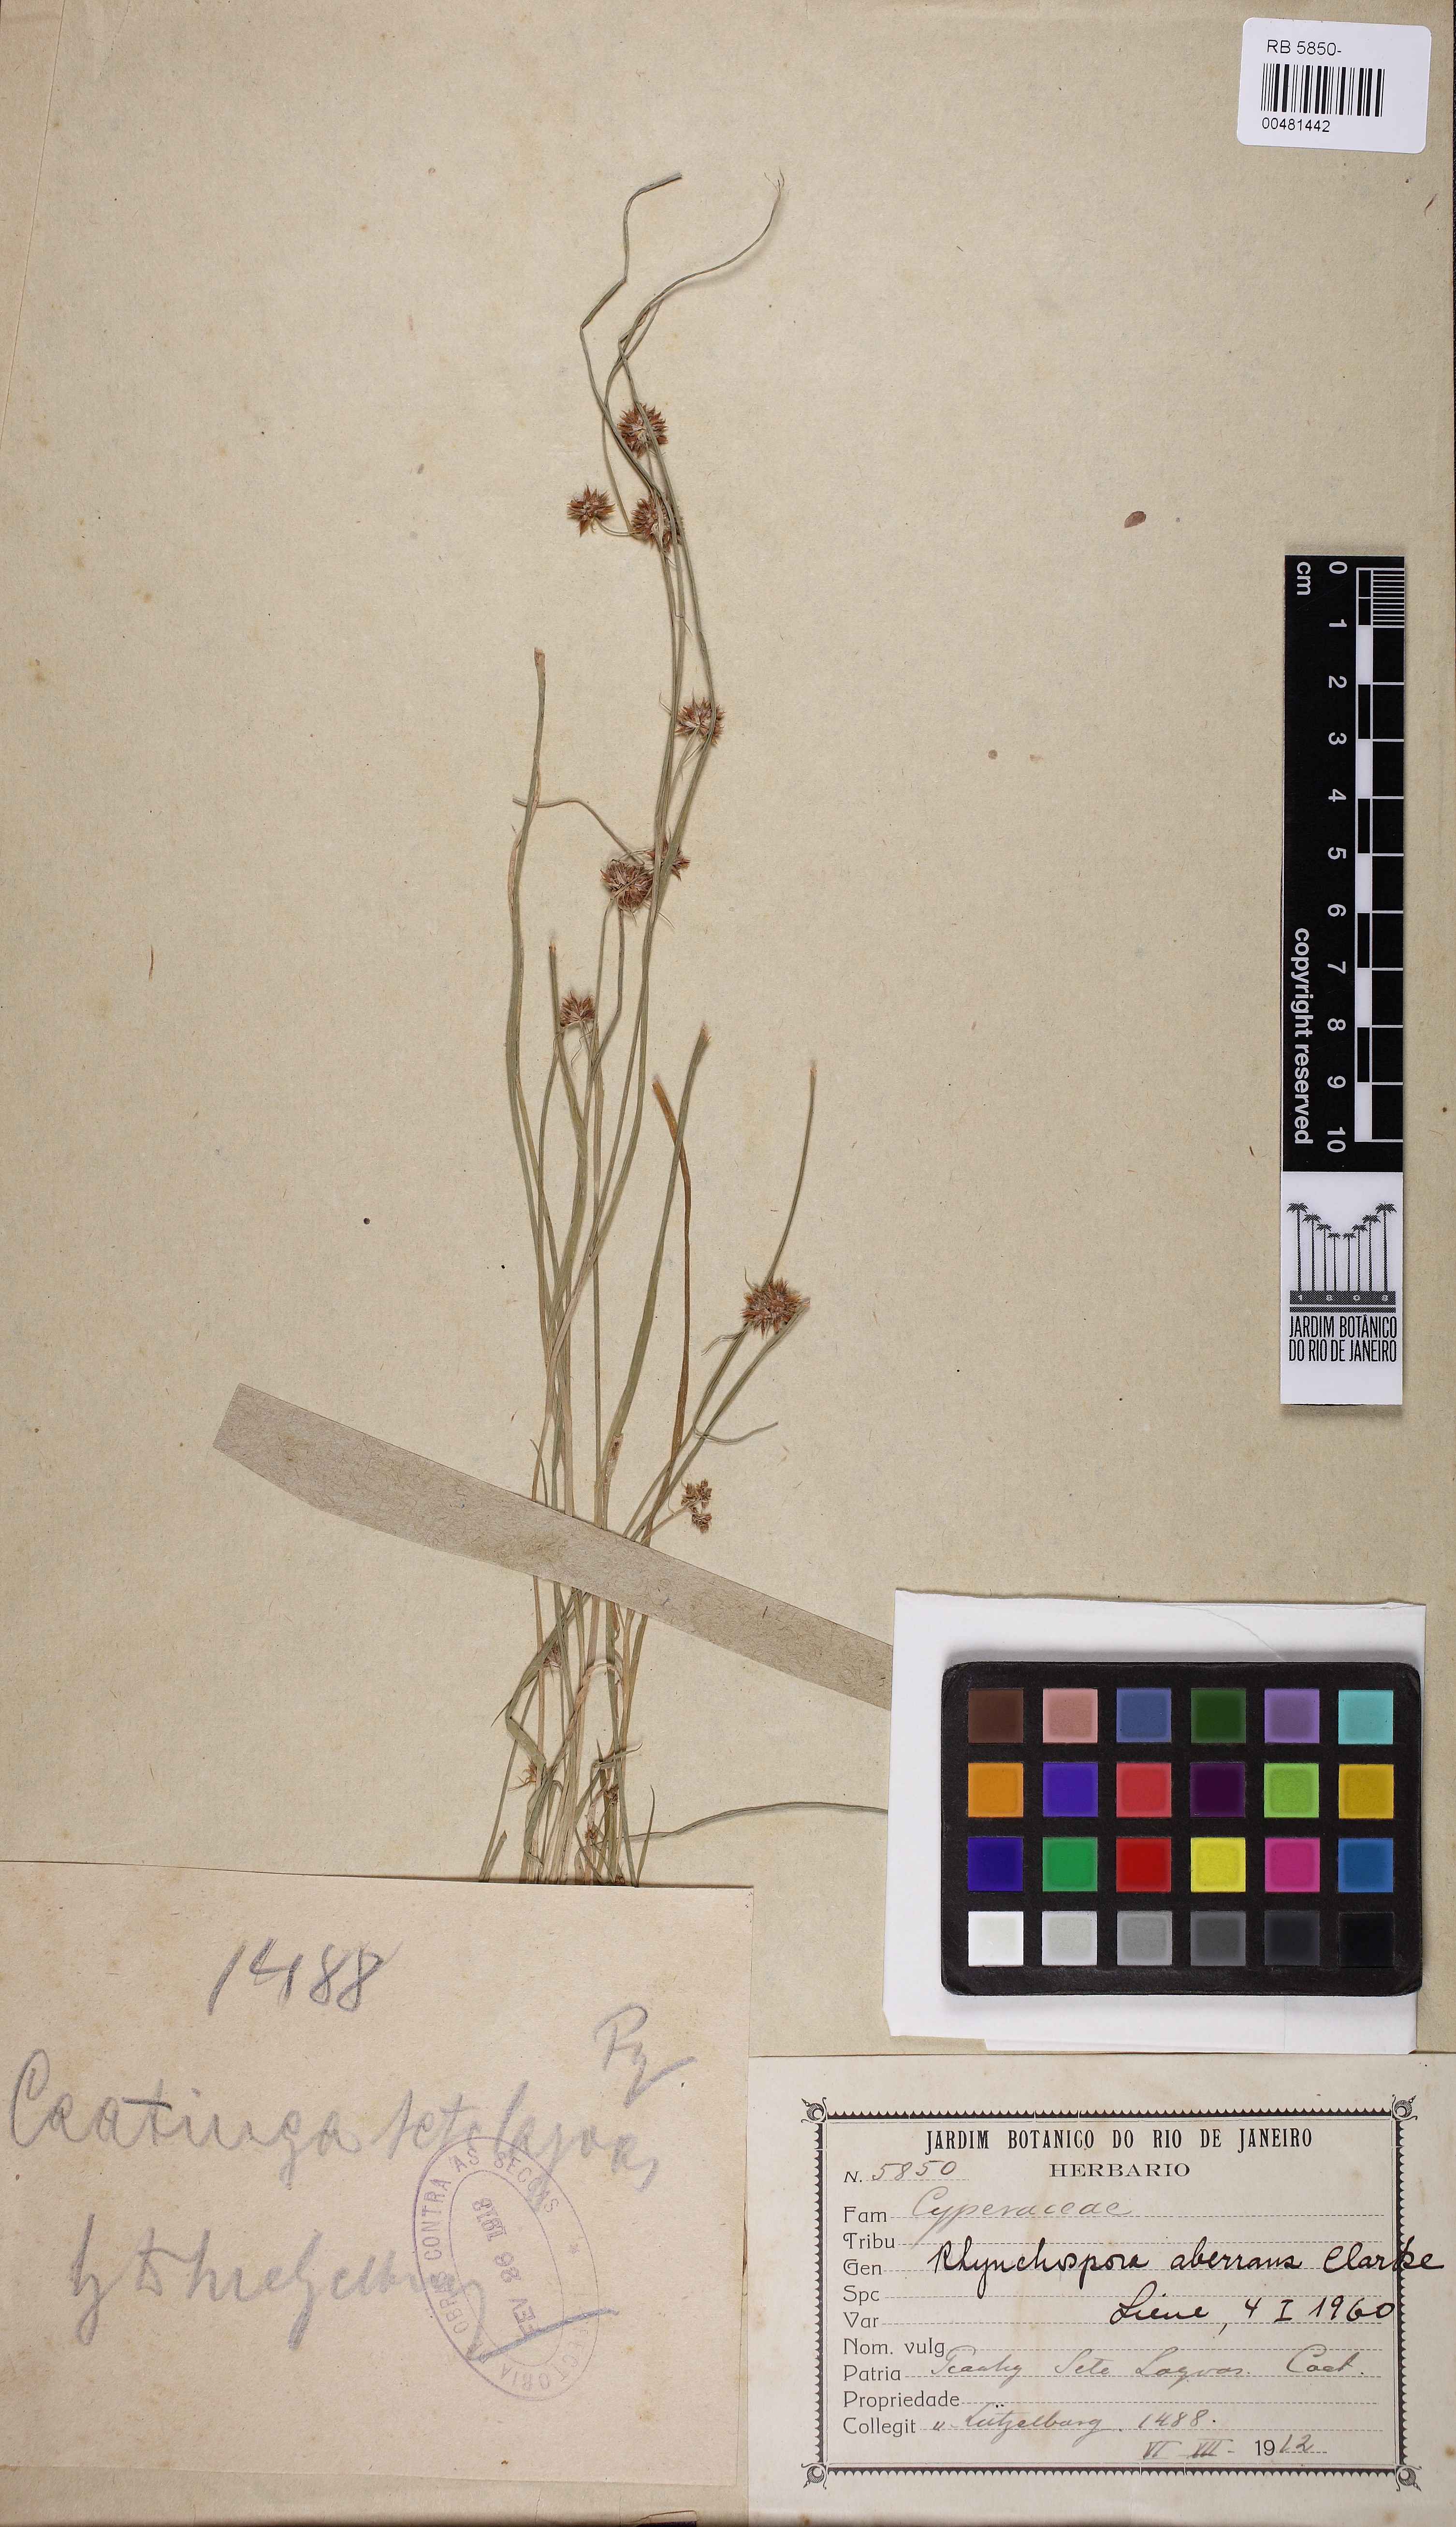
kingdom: Plantae
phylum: Tracheophyta
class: Liliopsida
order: Poales
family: Cyperaceae
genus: Rhynchospora
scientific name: Rhynchospora aberrans
